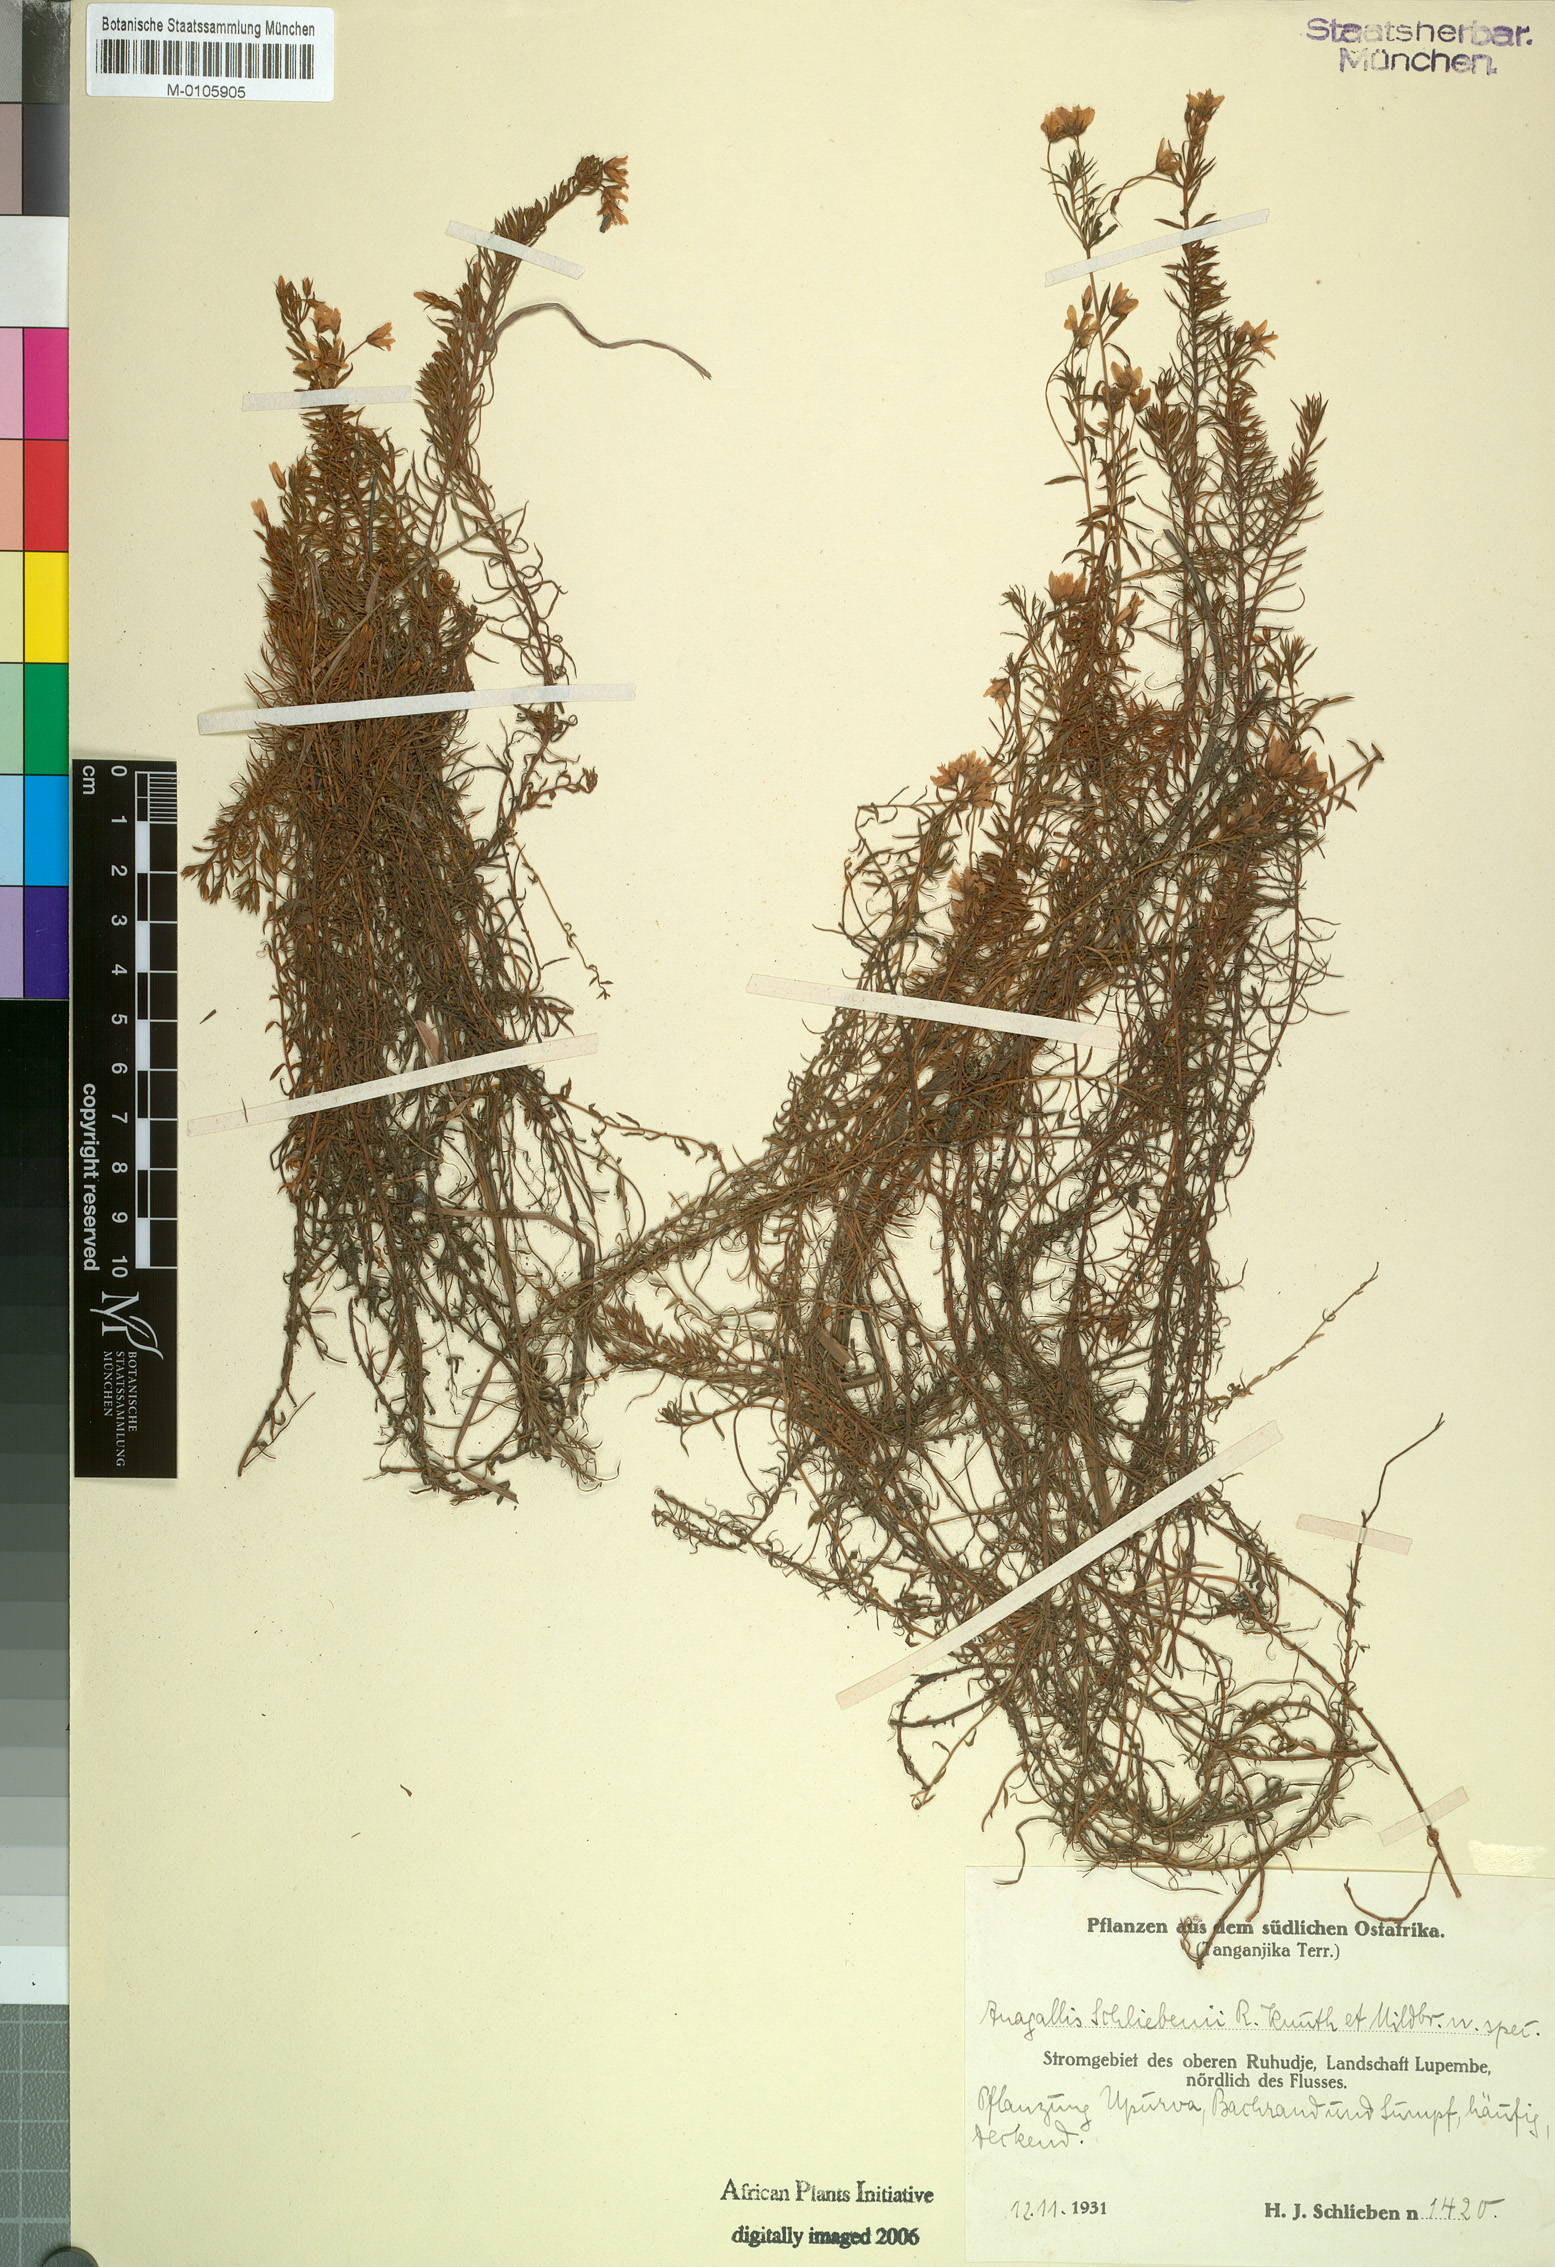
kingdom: Plantae
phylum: Tracheophyta
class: Magnoliopsida
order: Ericales
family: Primulaceae
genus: Lysimachia
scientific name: Lysimachia schliebenii
